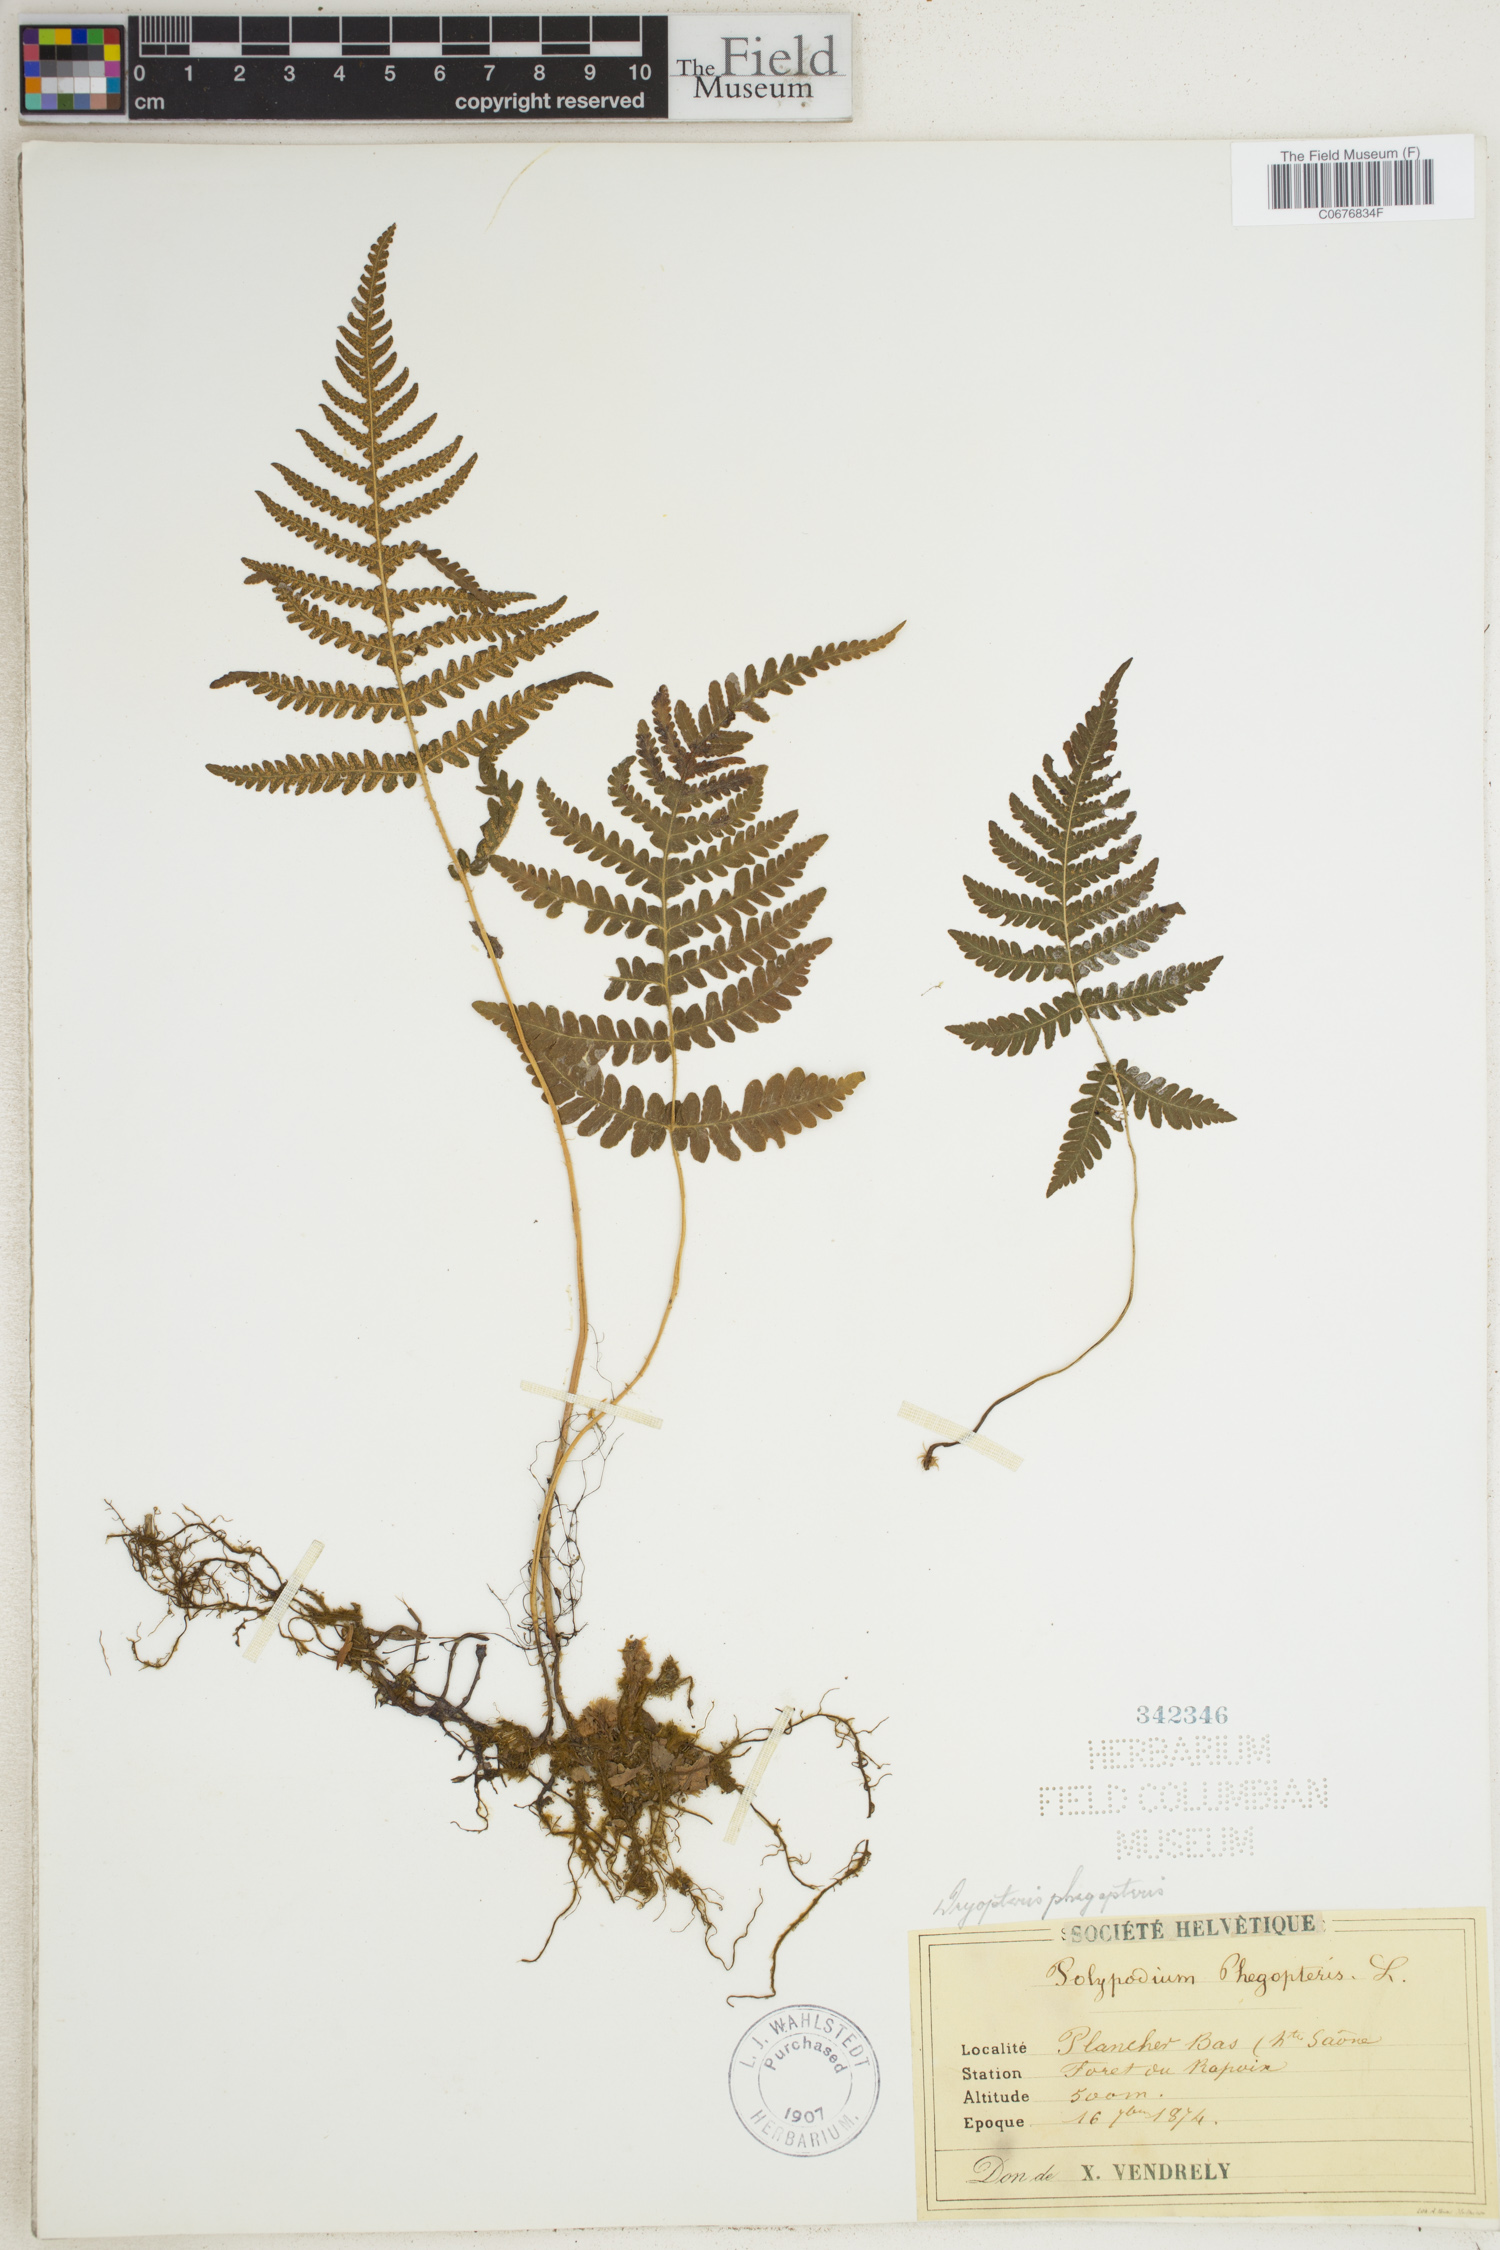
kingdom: Plantae
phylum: Tracheophyta
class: Polypodiopsida
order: Polypodiales
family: Thelypteridaceae
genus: Phegopteris
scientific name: Phegopteris connectilis
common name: Beech fern
